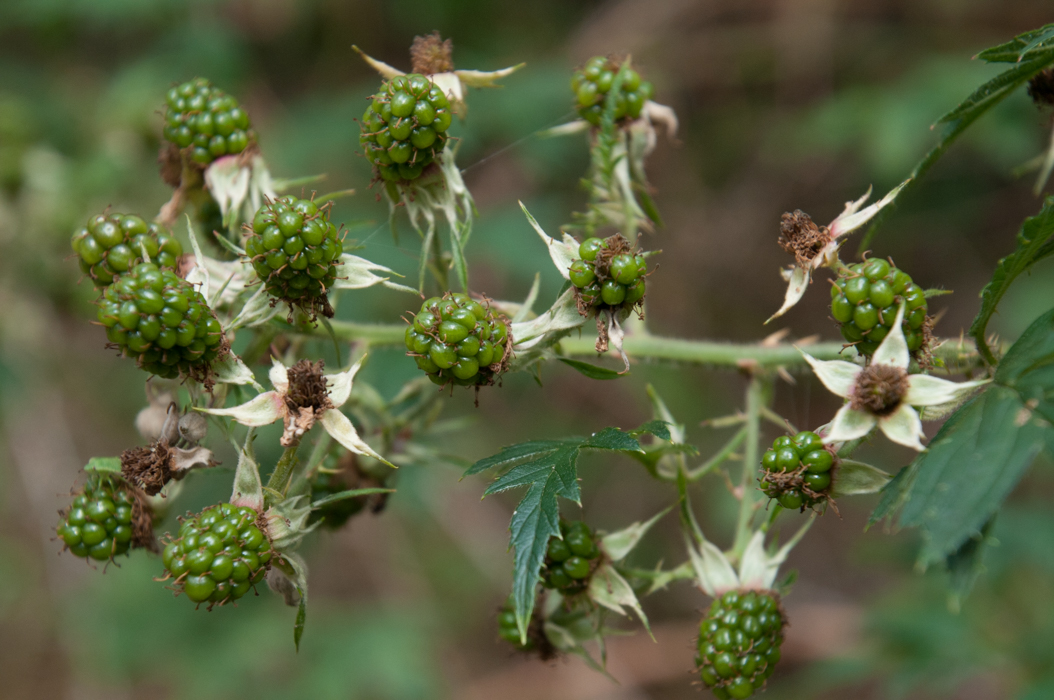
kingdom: Plantae
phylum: Tracheophyta
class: Magnoliopsida
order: Rosales
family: Rosaceae
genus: Rubus
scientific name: Rubus laciniatus
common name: Evergreen blackberry
